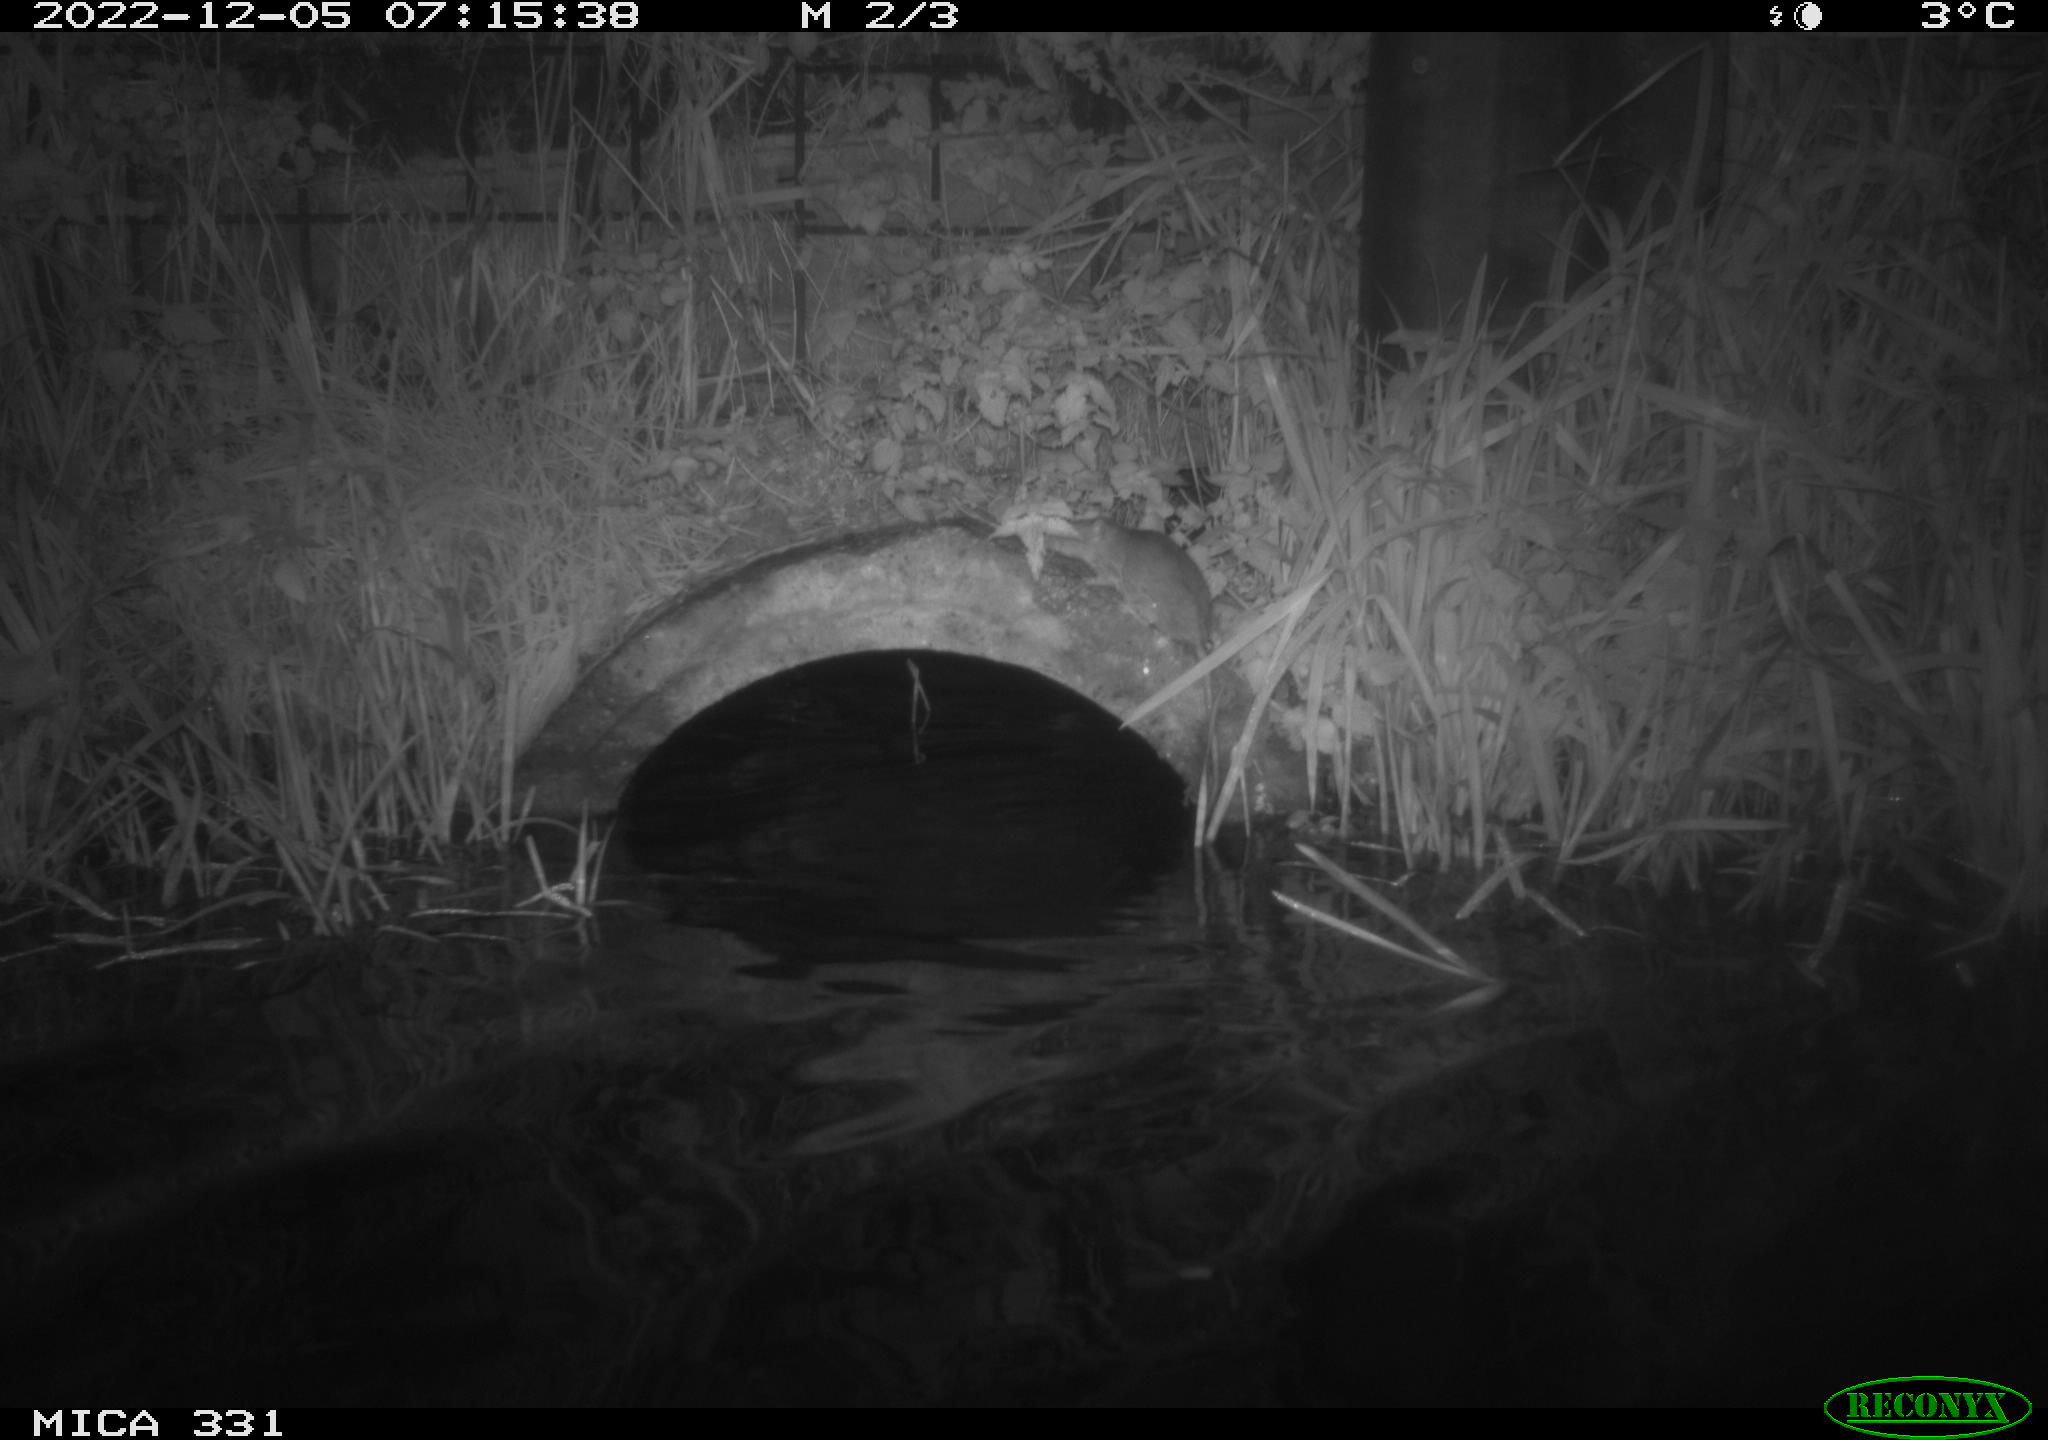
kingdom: Animalia
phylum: Chordata
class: Mammalia
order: Rodentia
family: Muridae
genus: Rattus
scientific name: Rattus norvegicus
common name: Brown rat
